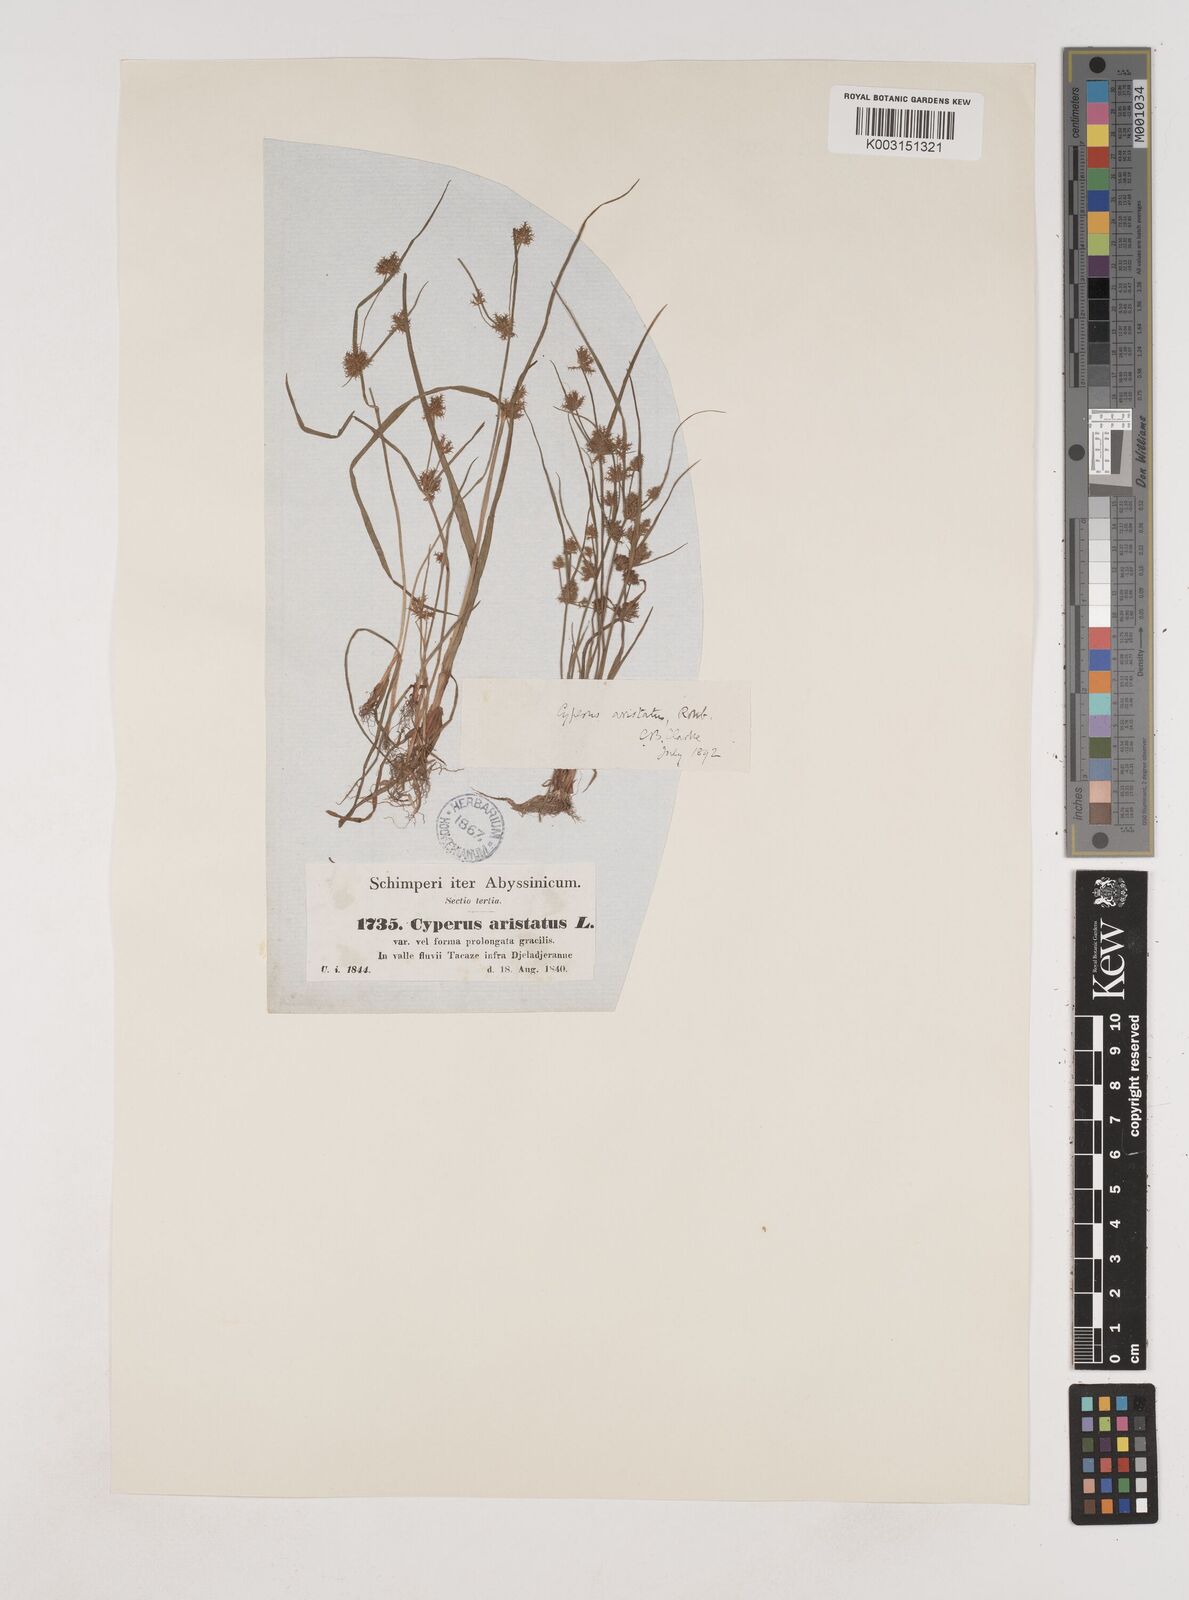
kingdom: Plantae
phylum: Tracheophyta
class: Liliopsida
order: Poales
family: Cyperaceae
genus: Cyperus
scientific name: Cyperus squarrosus
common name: Awned cyperus
